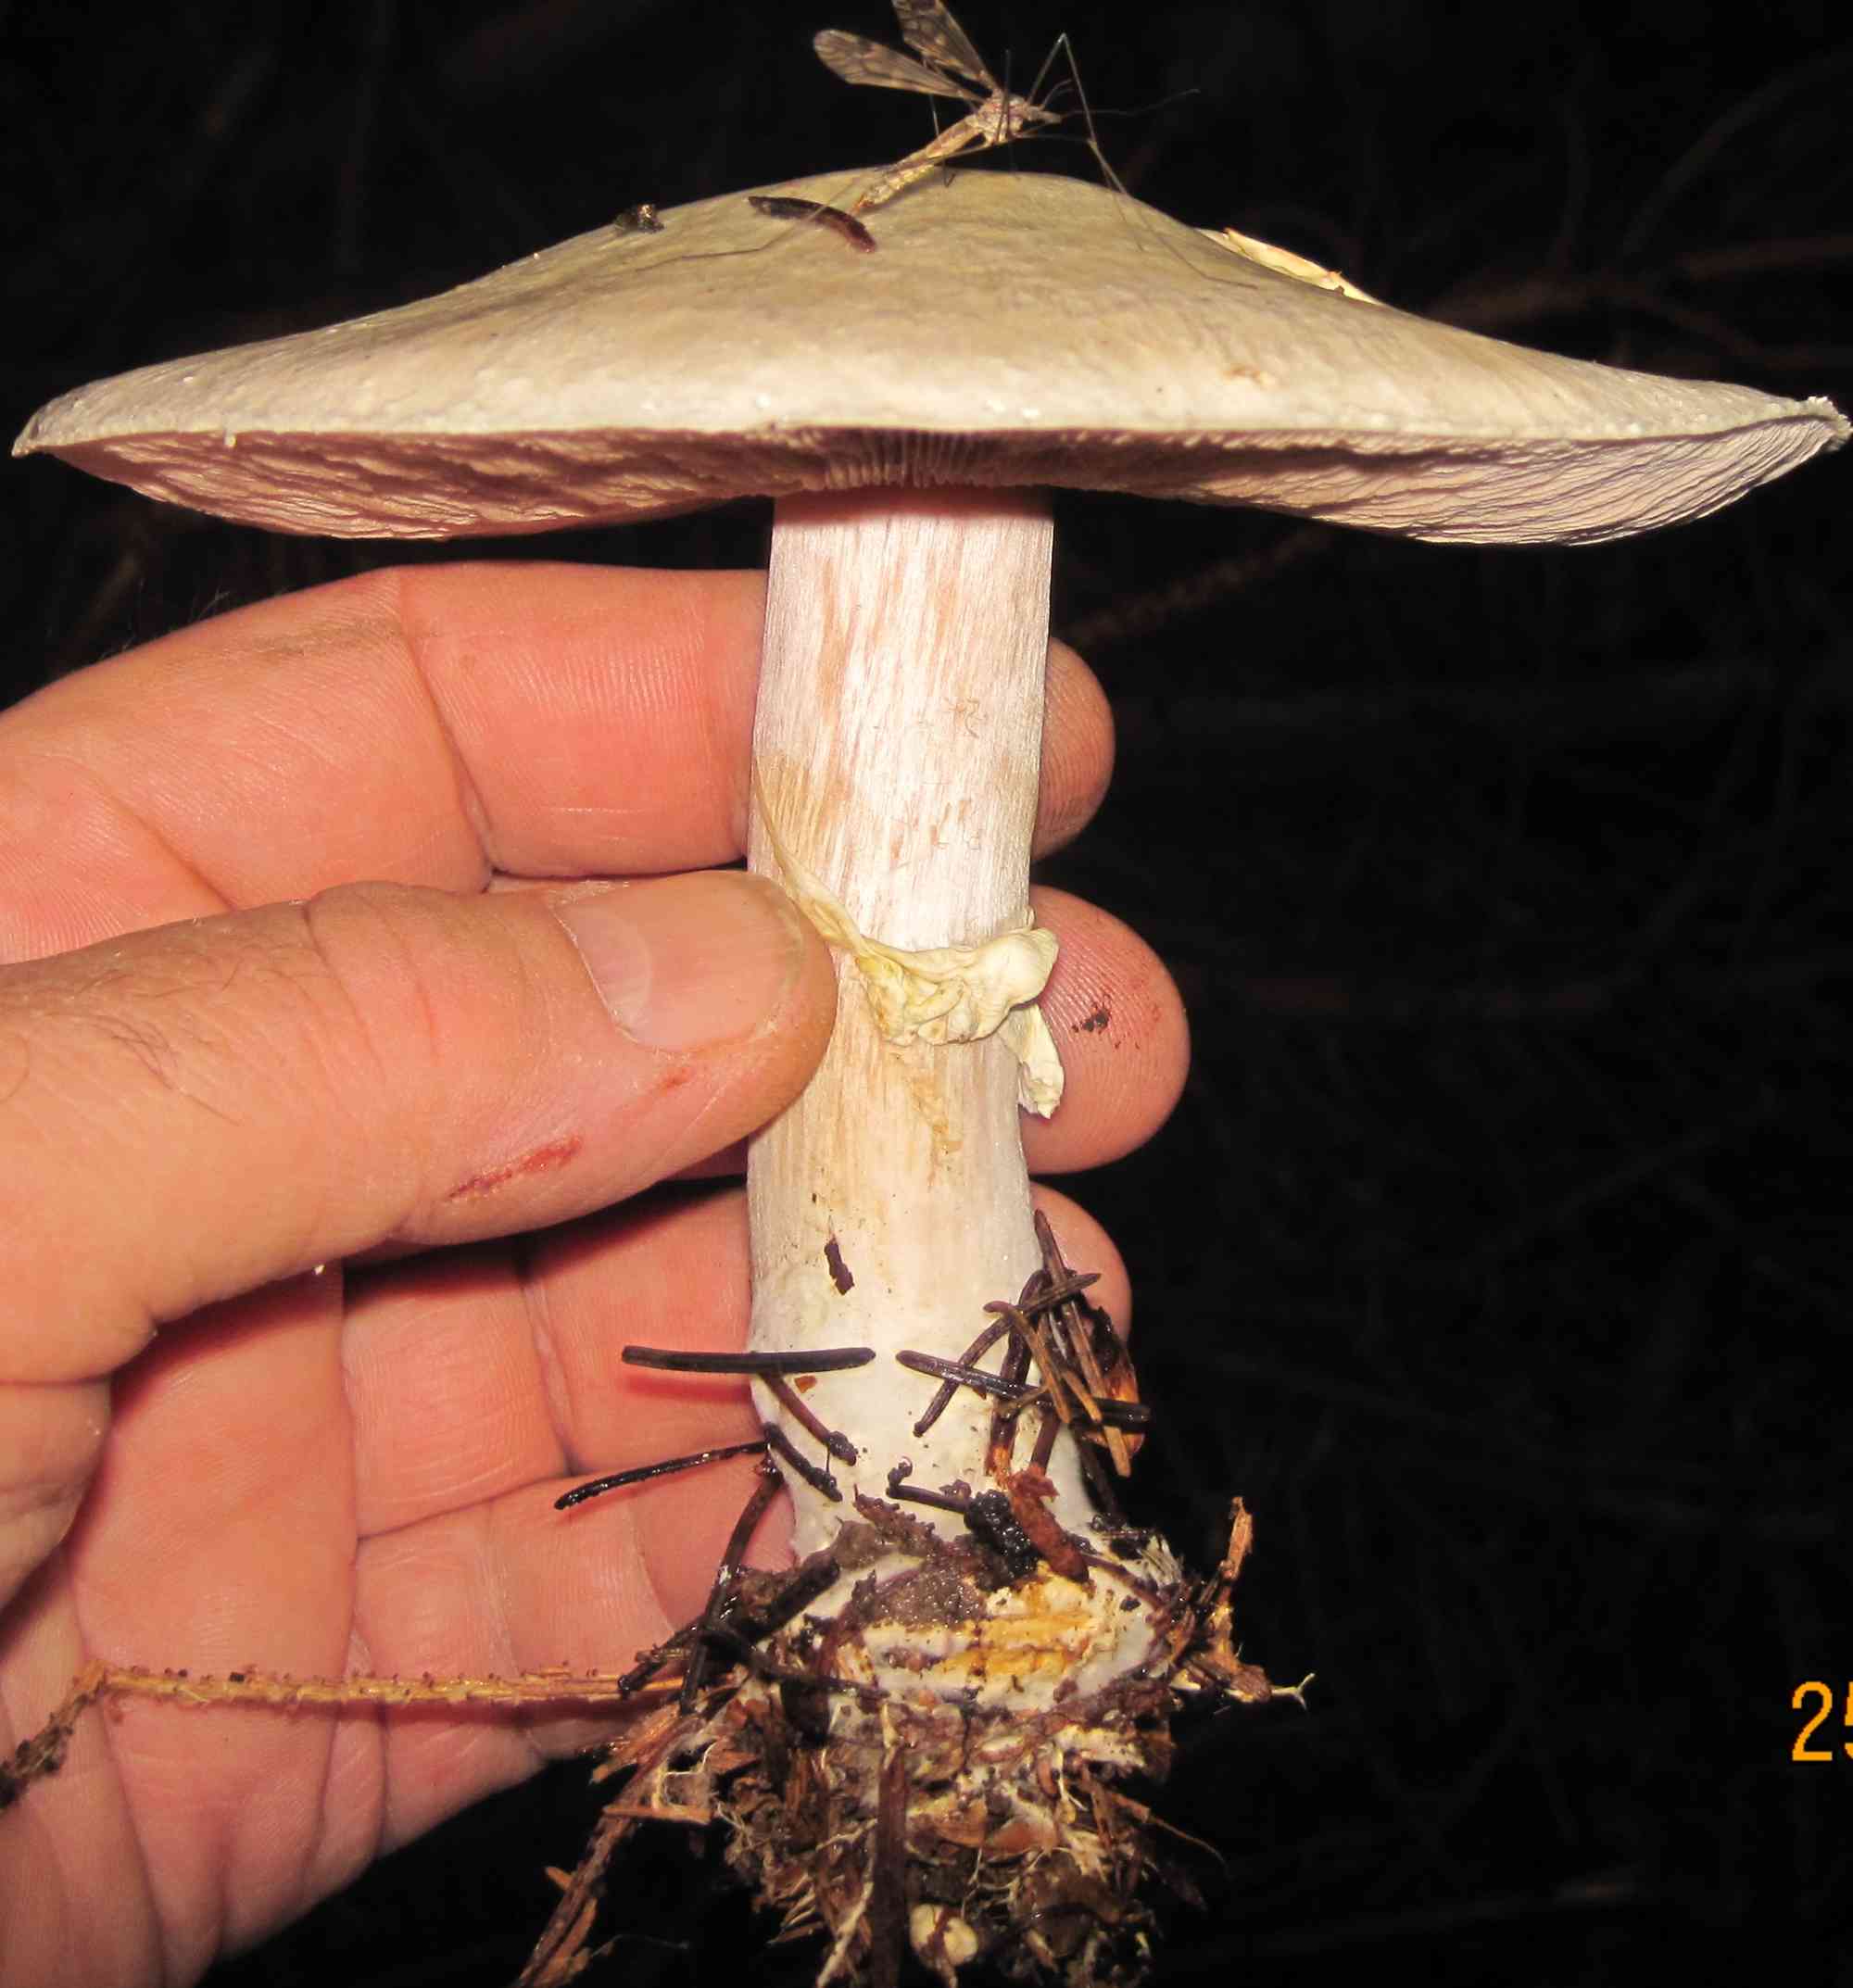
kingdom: Fungi
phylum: Basidiomycota
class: Agaricomycetes
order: Agaricales
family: Agaricaceae
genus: Agaricus
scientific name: Agaricus sylvicola
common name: gulhvid champignon
